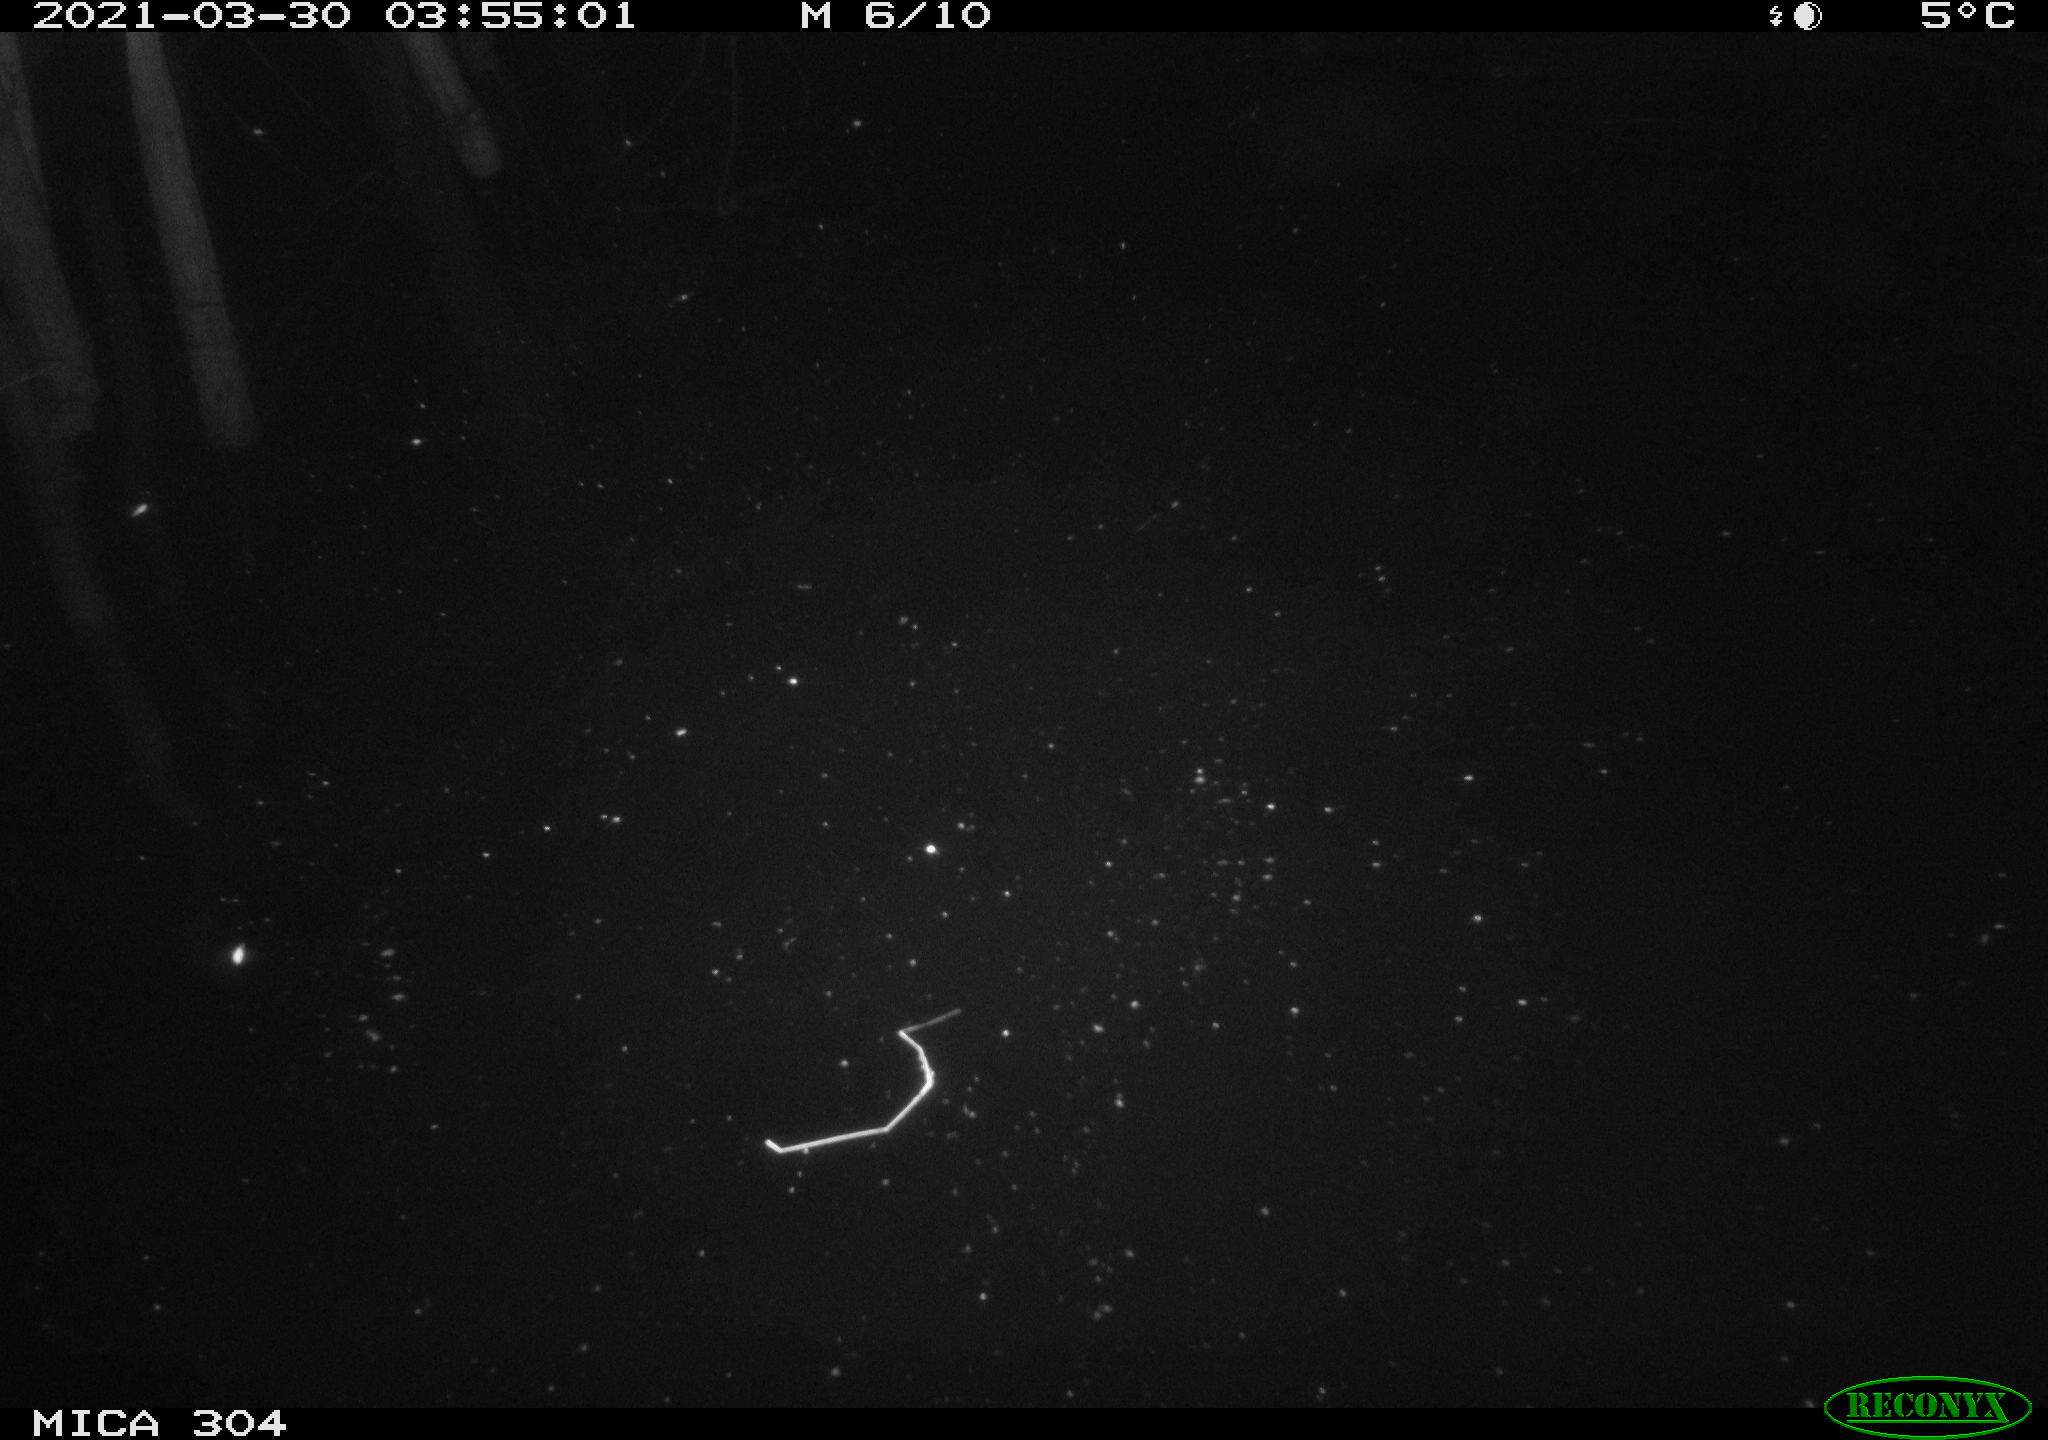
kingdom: Animalia
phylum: Chordata
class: Aves
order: Anseriformes
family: Anatidae
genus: Anas
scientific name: Anas platyrhynchos
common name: Mallard
